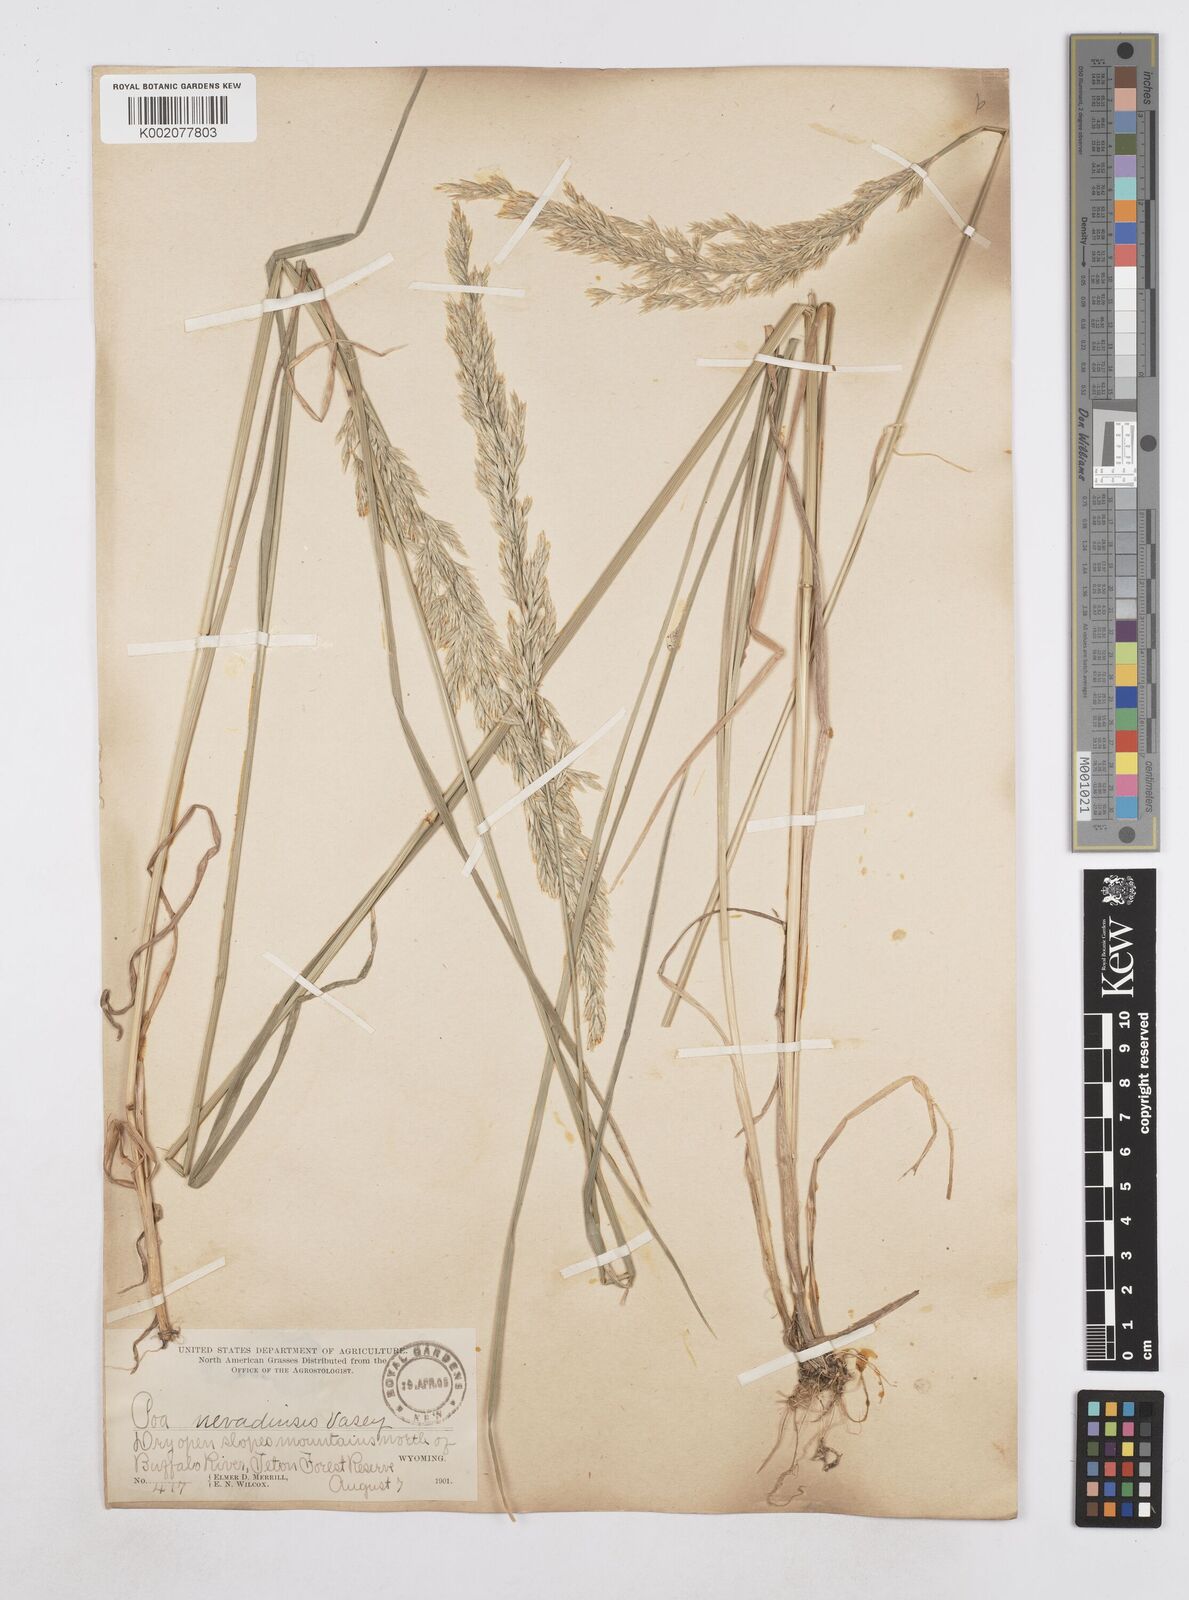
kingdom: Plantae
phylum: Tracheophyta
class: Liliopsida
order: Poales
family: Poaceae
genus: Poa
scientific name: Poa secunda
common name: Sandberg bluegrass
